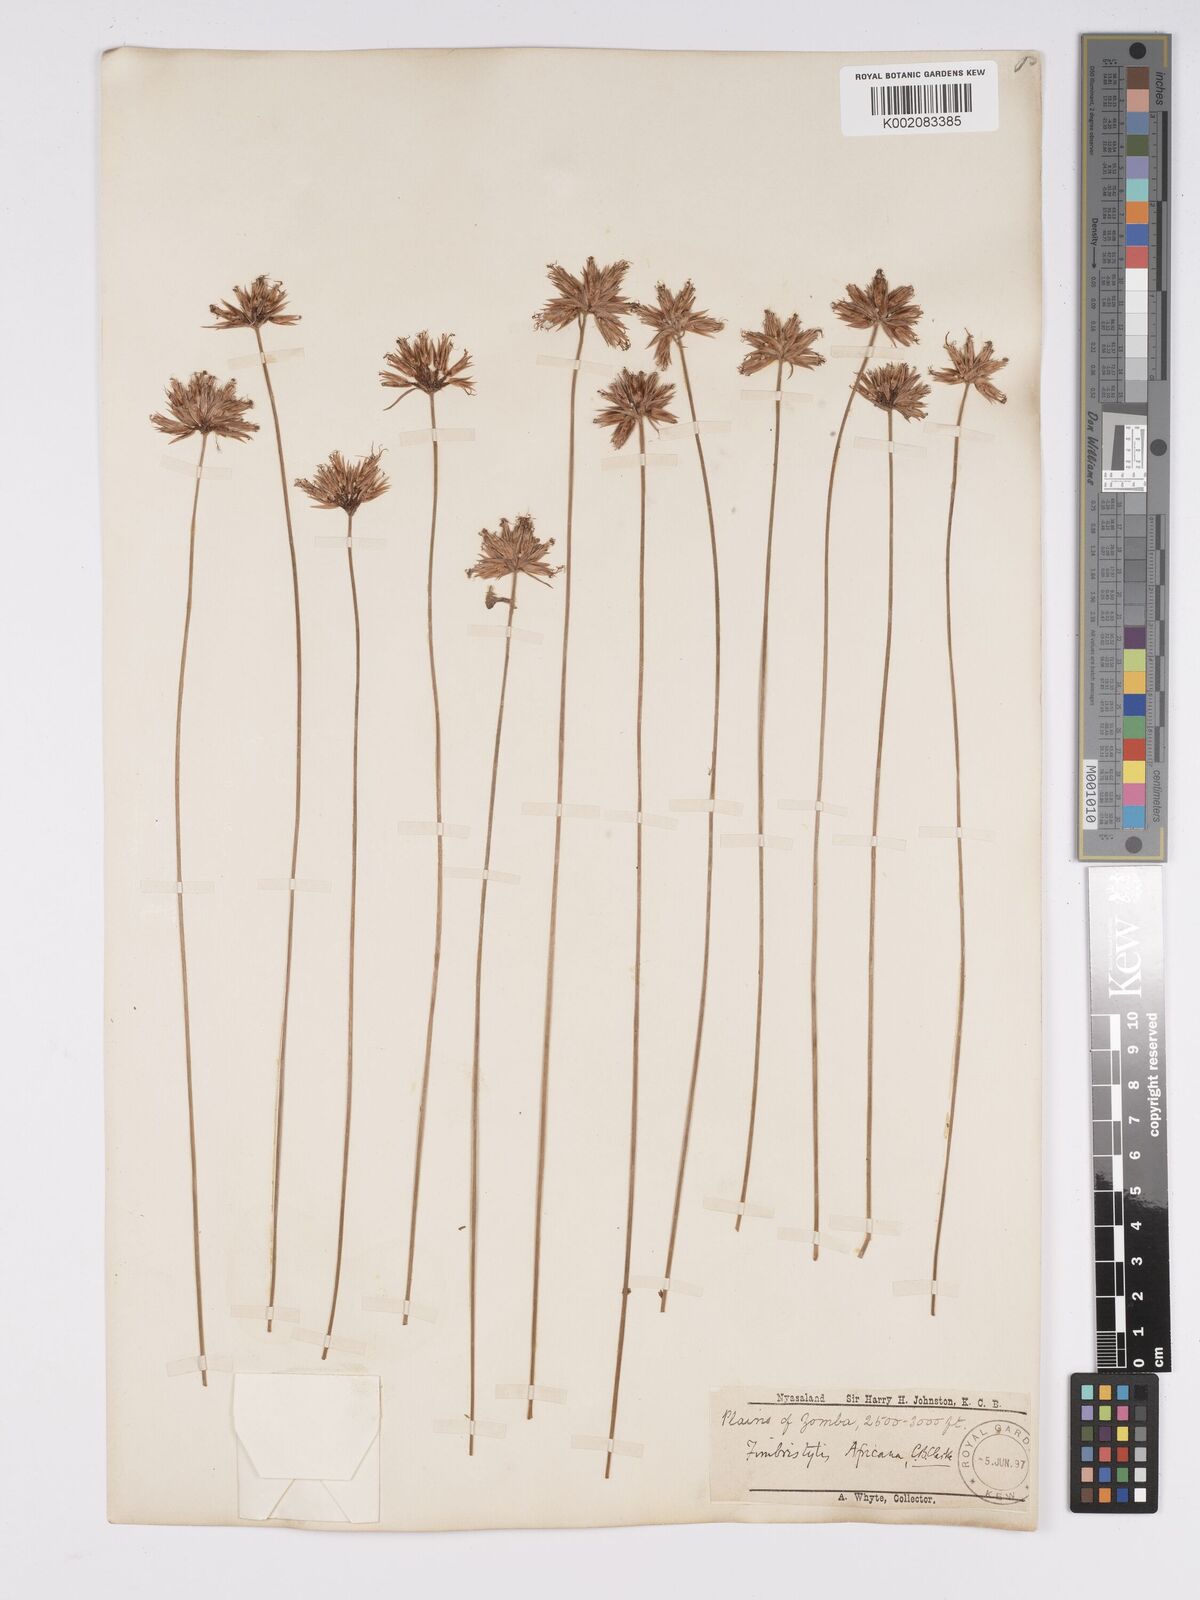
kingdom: Plantae
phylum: Tracheophyta
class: Liliopsida
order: Poales
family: Cyperaceae
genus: Bulbostylis
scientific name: Bulbostylis pilosa
